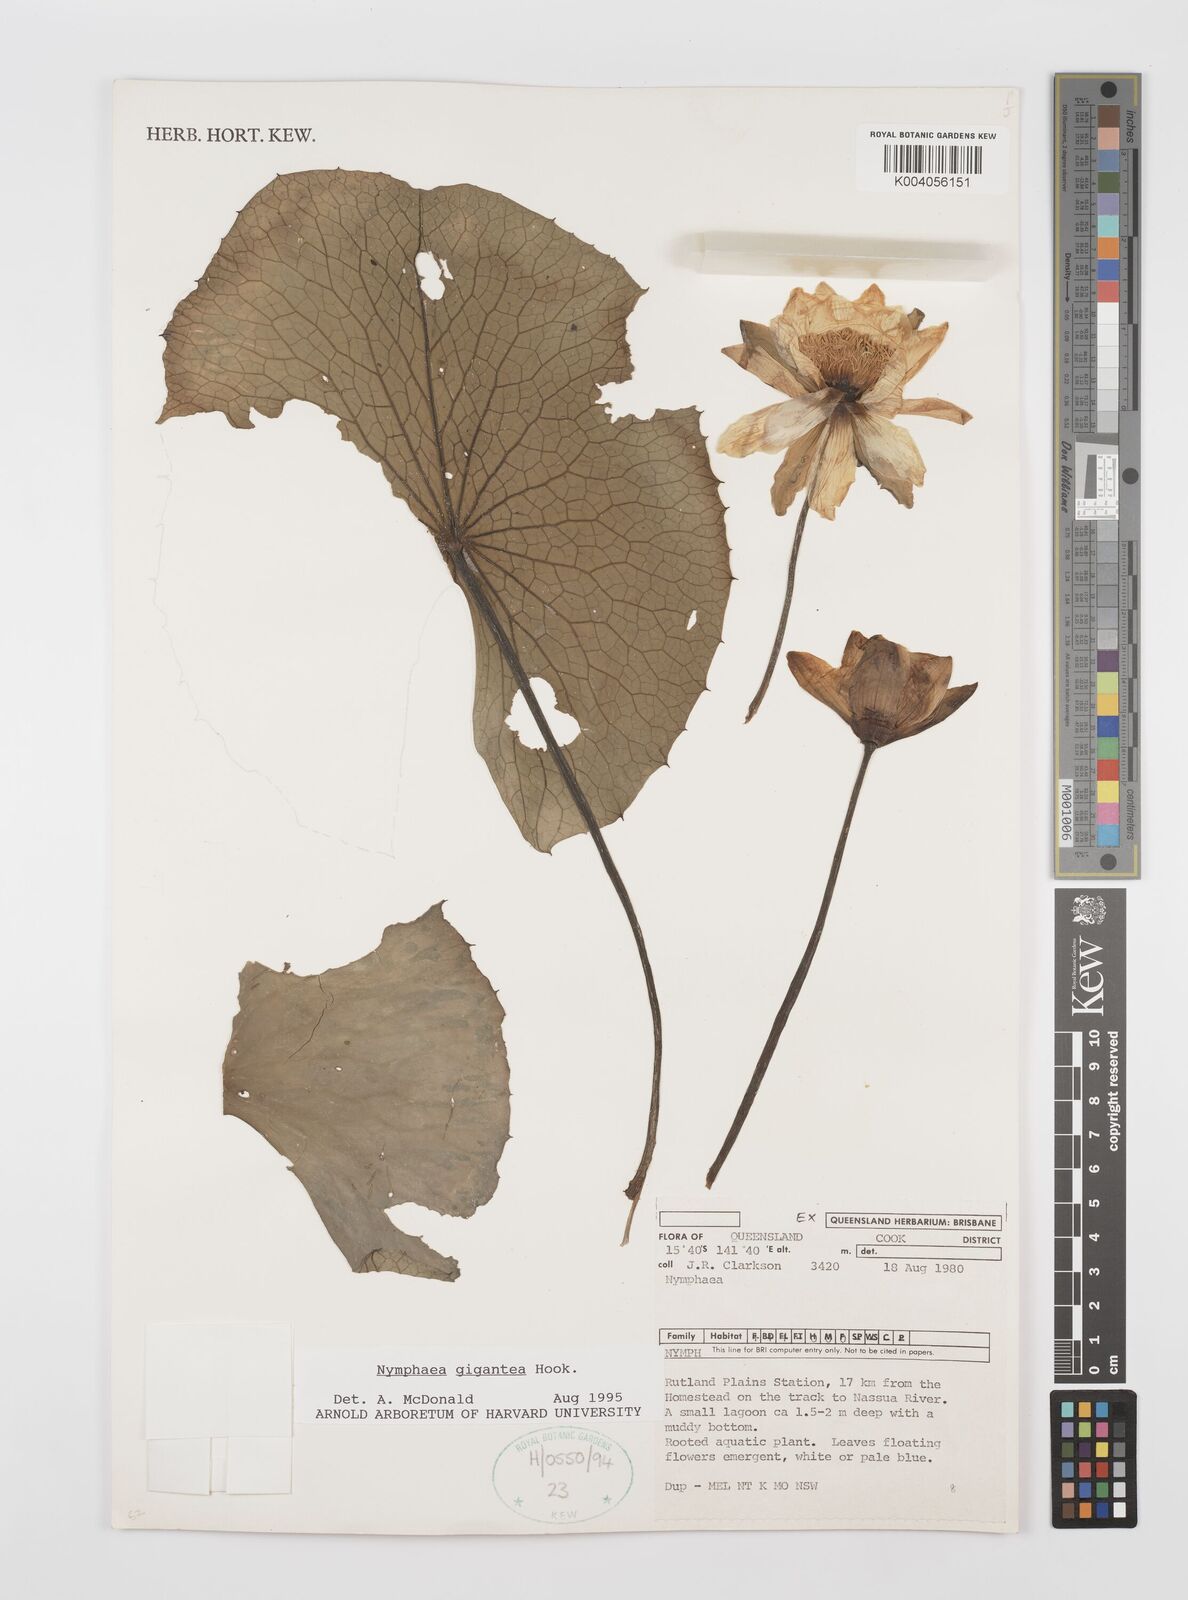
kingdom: Plantae
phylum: Tracheophyta
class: Magnoliopsida
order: Nymphaeales
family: Nymphaeaceae
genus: Nymphaea
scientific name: Nymphaea gigantea
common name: Giant water-lily
